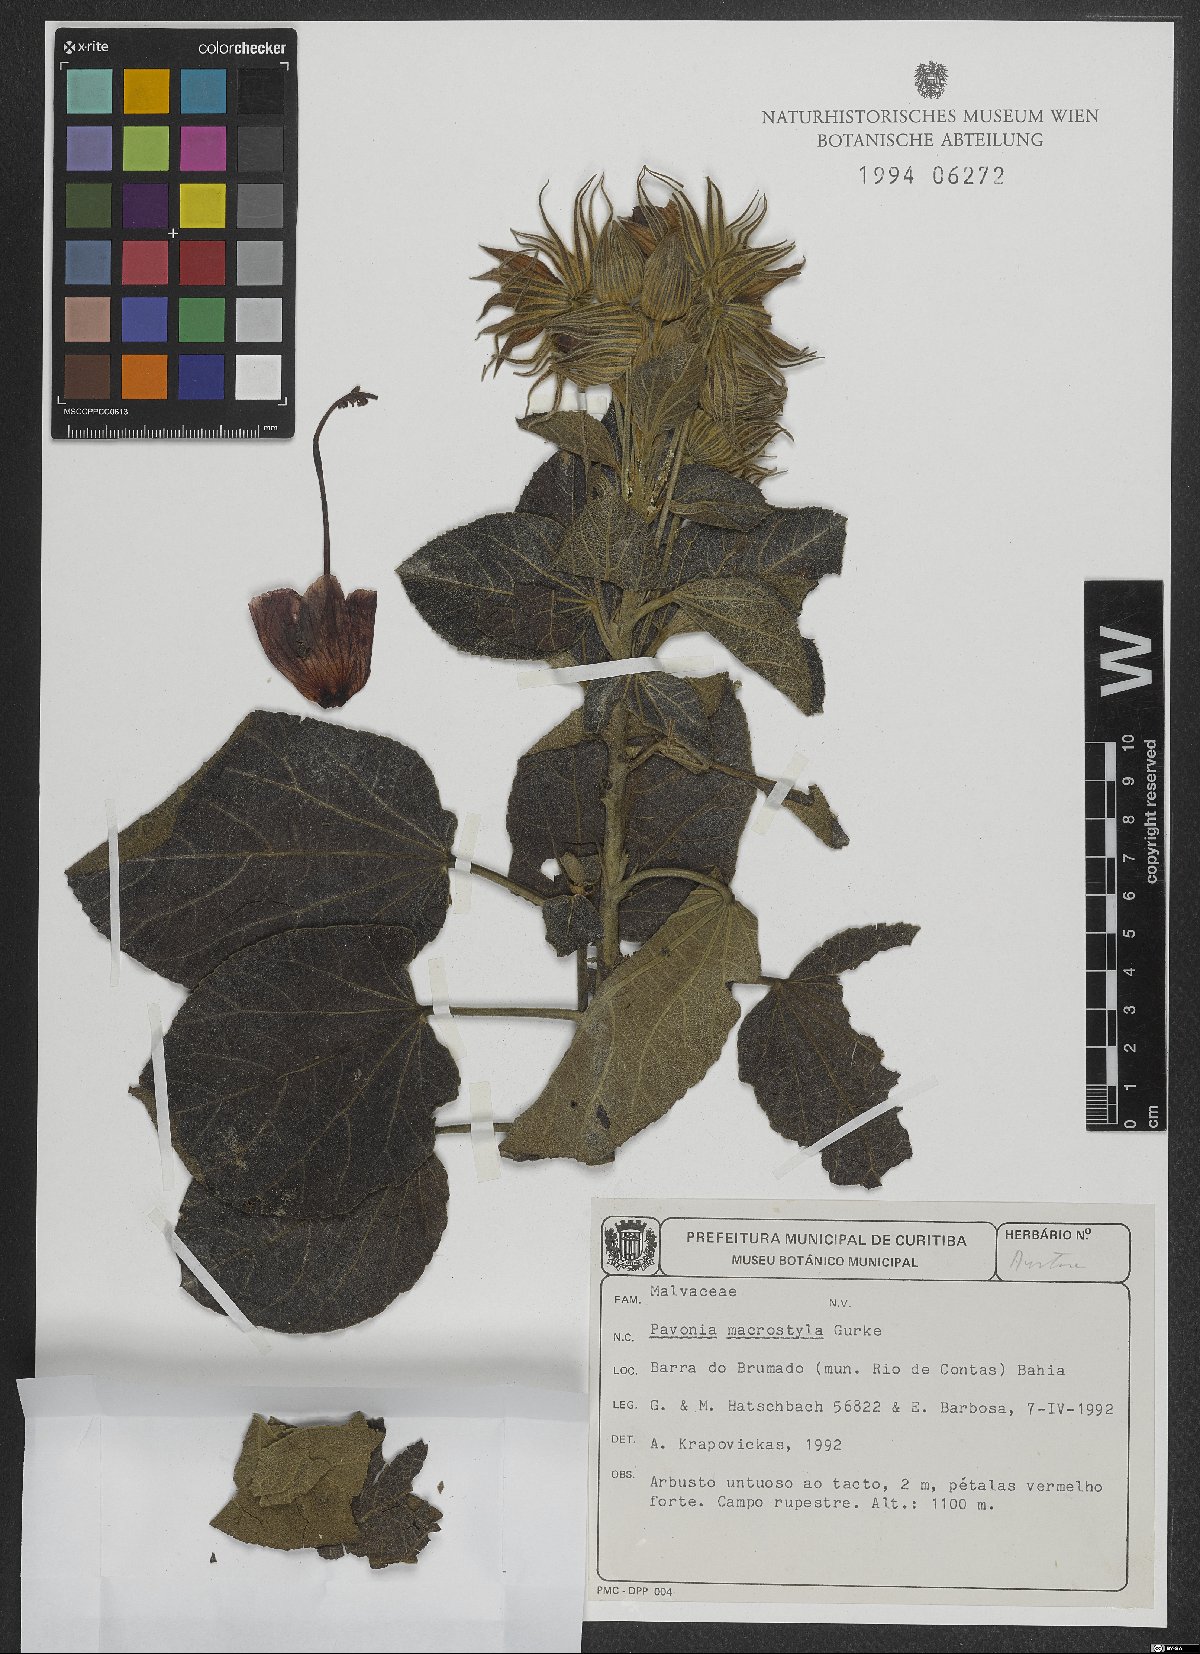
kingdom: Plantae
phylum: Tracheophyta
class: Magnoliopsida
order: Malvales
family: Malvaceae
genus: Pavonia
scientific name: Pavonia macrostyla
